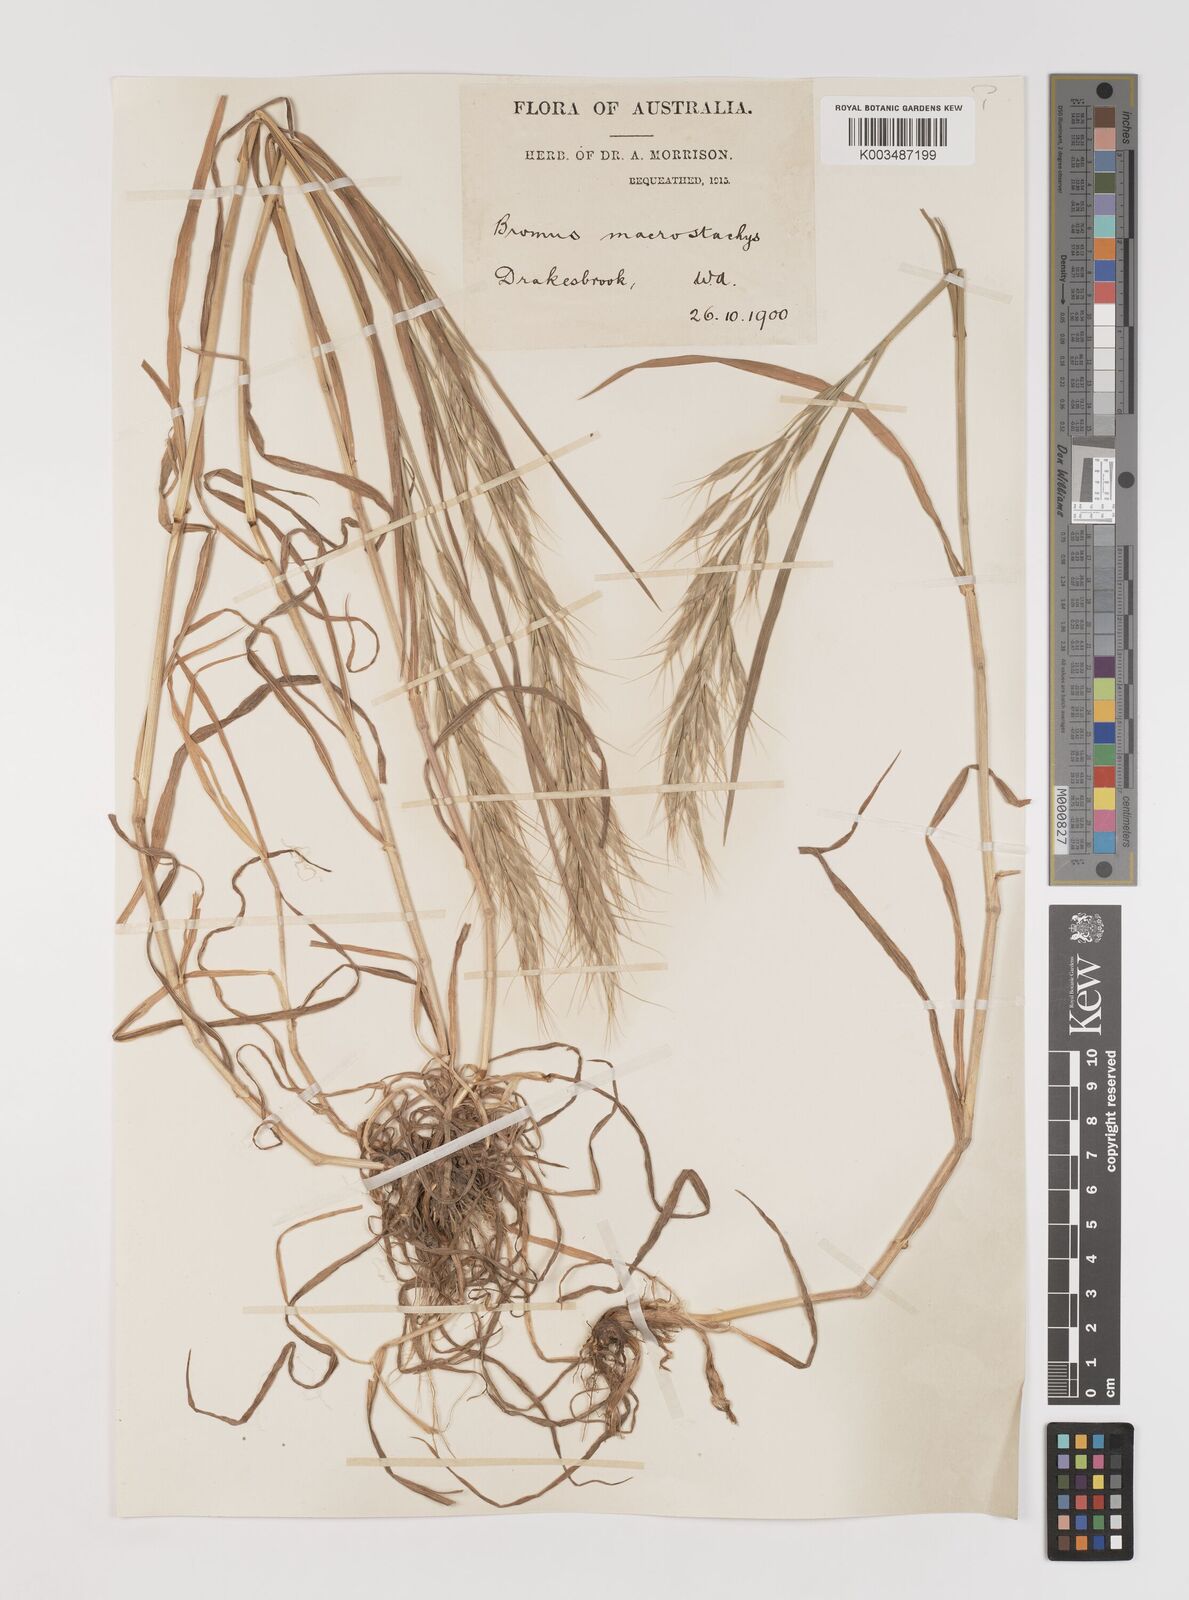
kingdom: Plantae
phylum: Tracheophyta
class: Liliopsida
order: Poales
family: Poaceae
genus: Bromus
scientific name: Bromus lanceolatus
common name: Mediterranean brome
